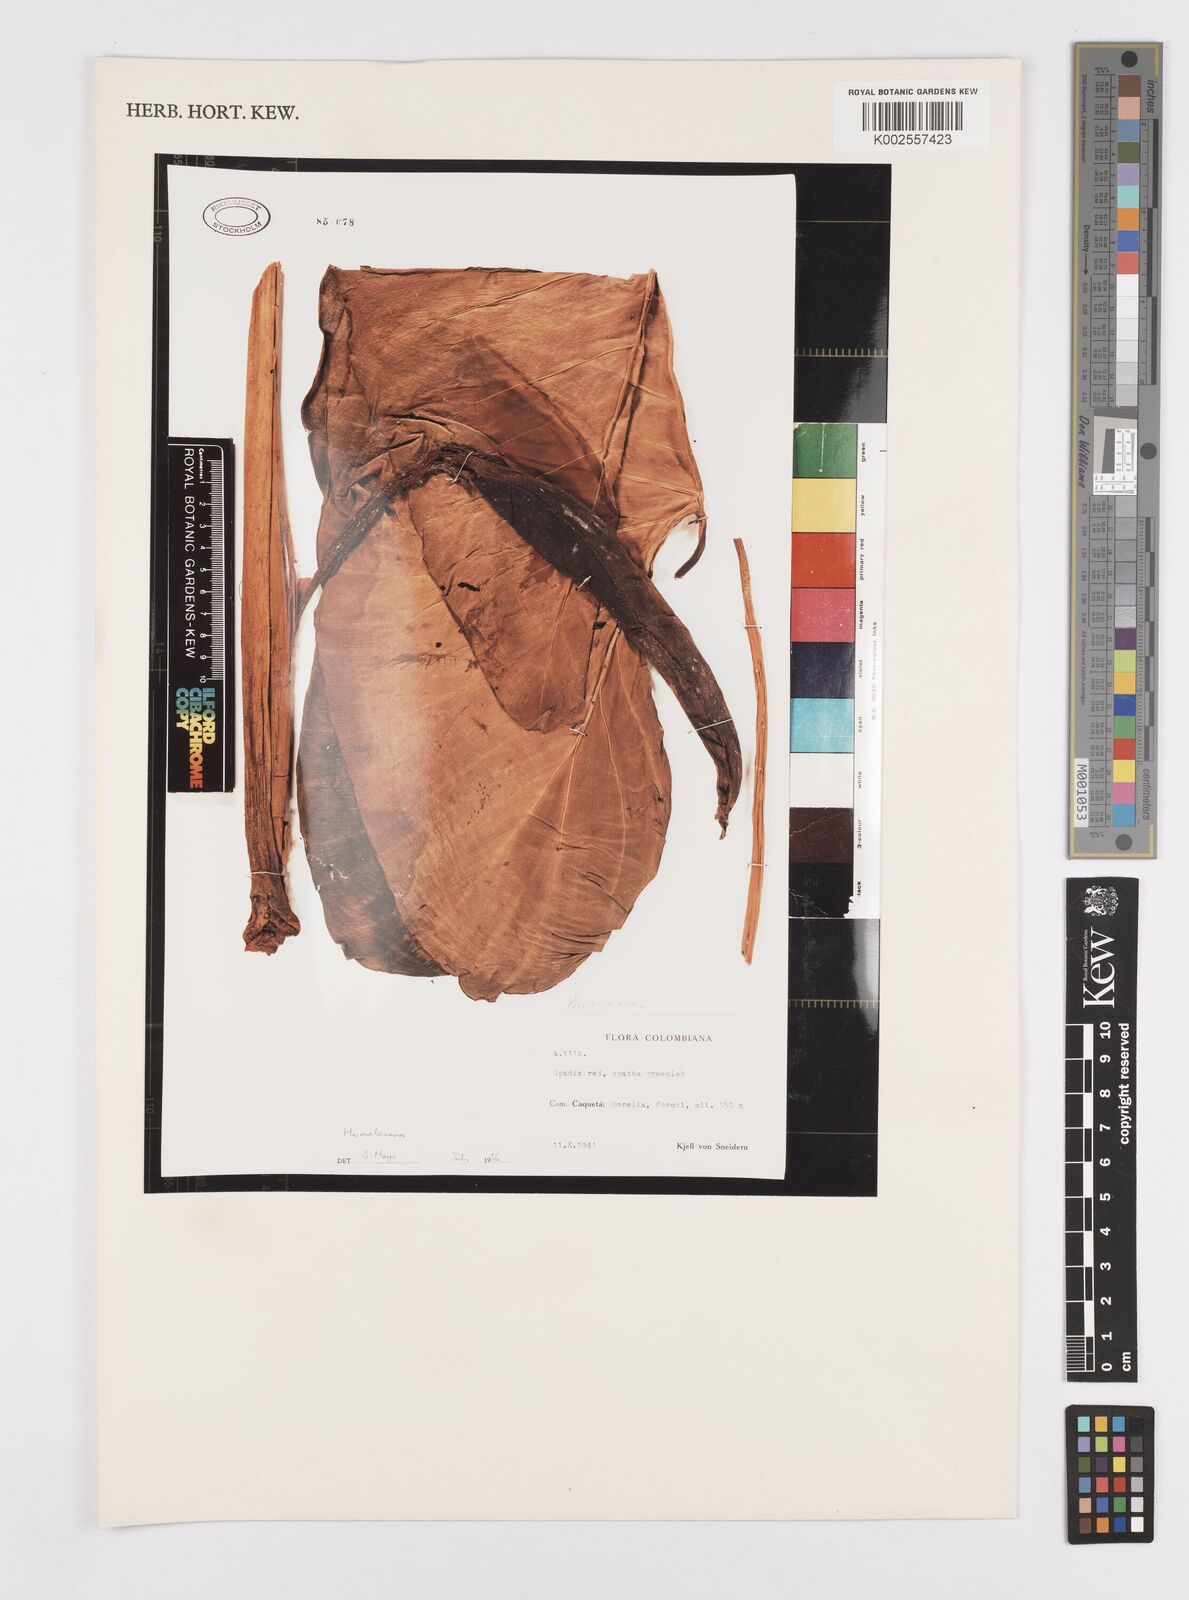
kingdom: Plantae
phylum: Tracheophyta
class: Liliopsida
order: Alismatales
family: Araceae
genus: Adelonema
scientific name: Adelonema
